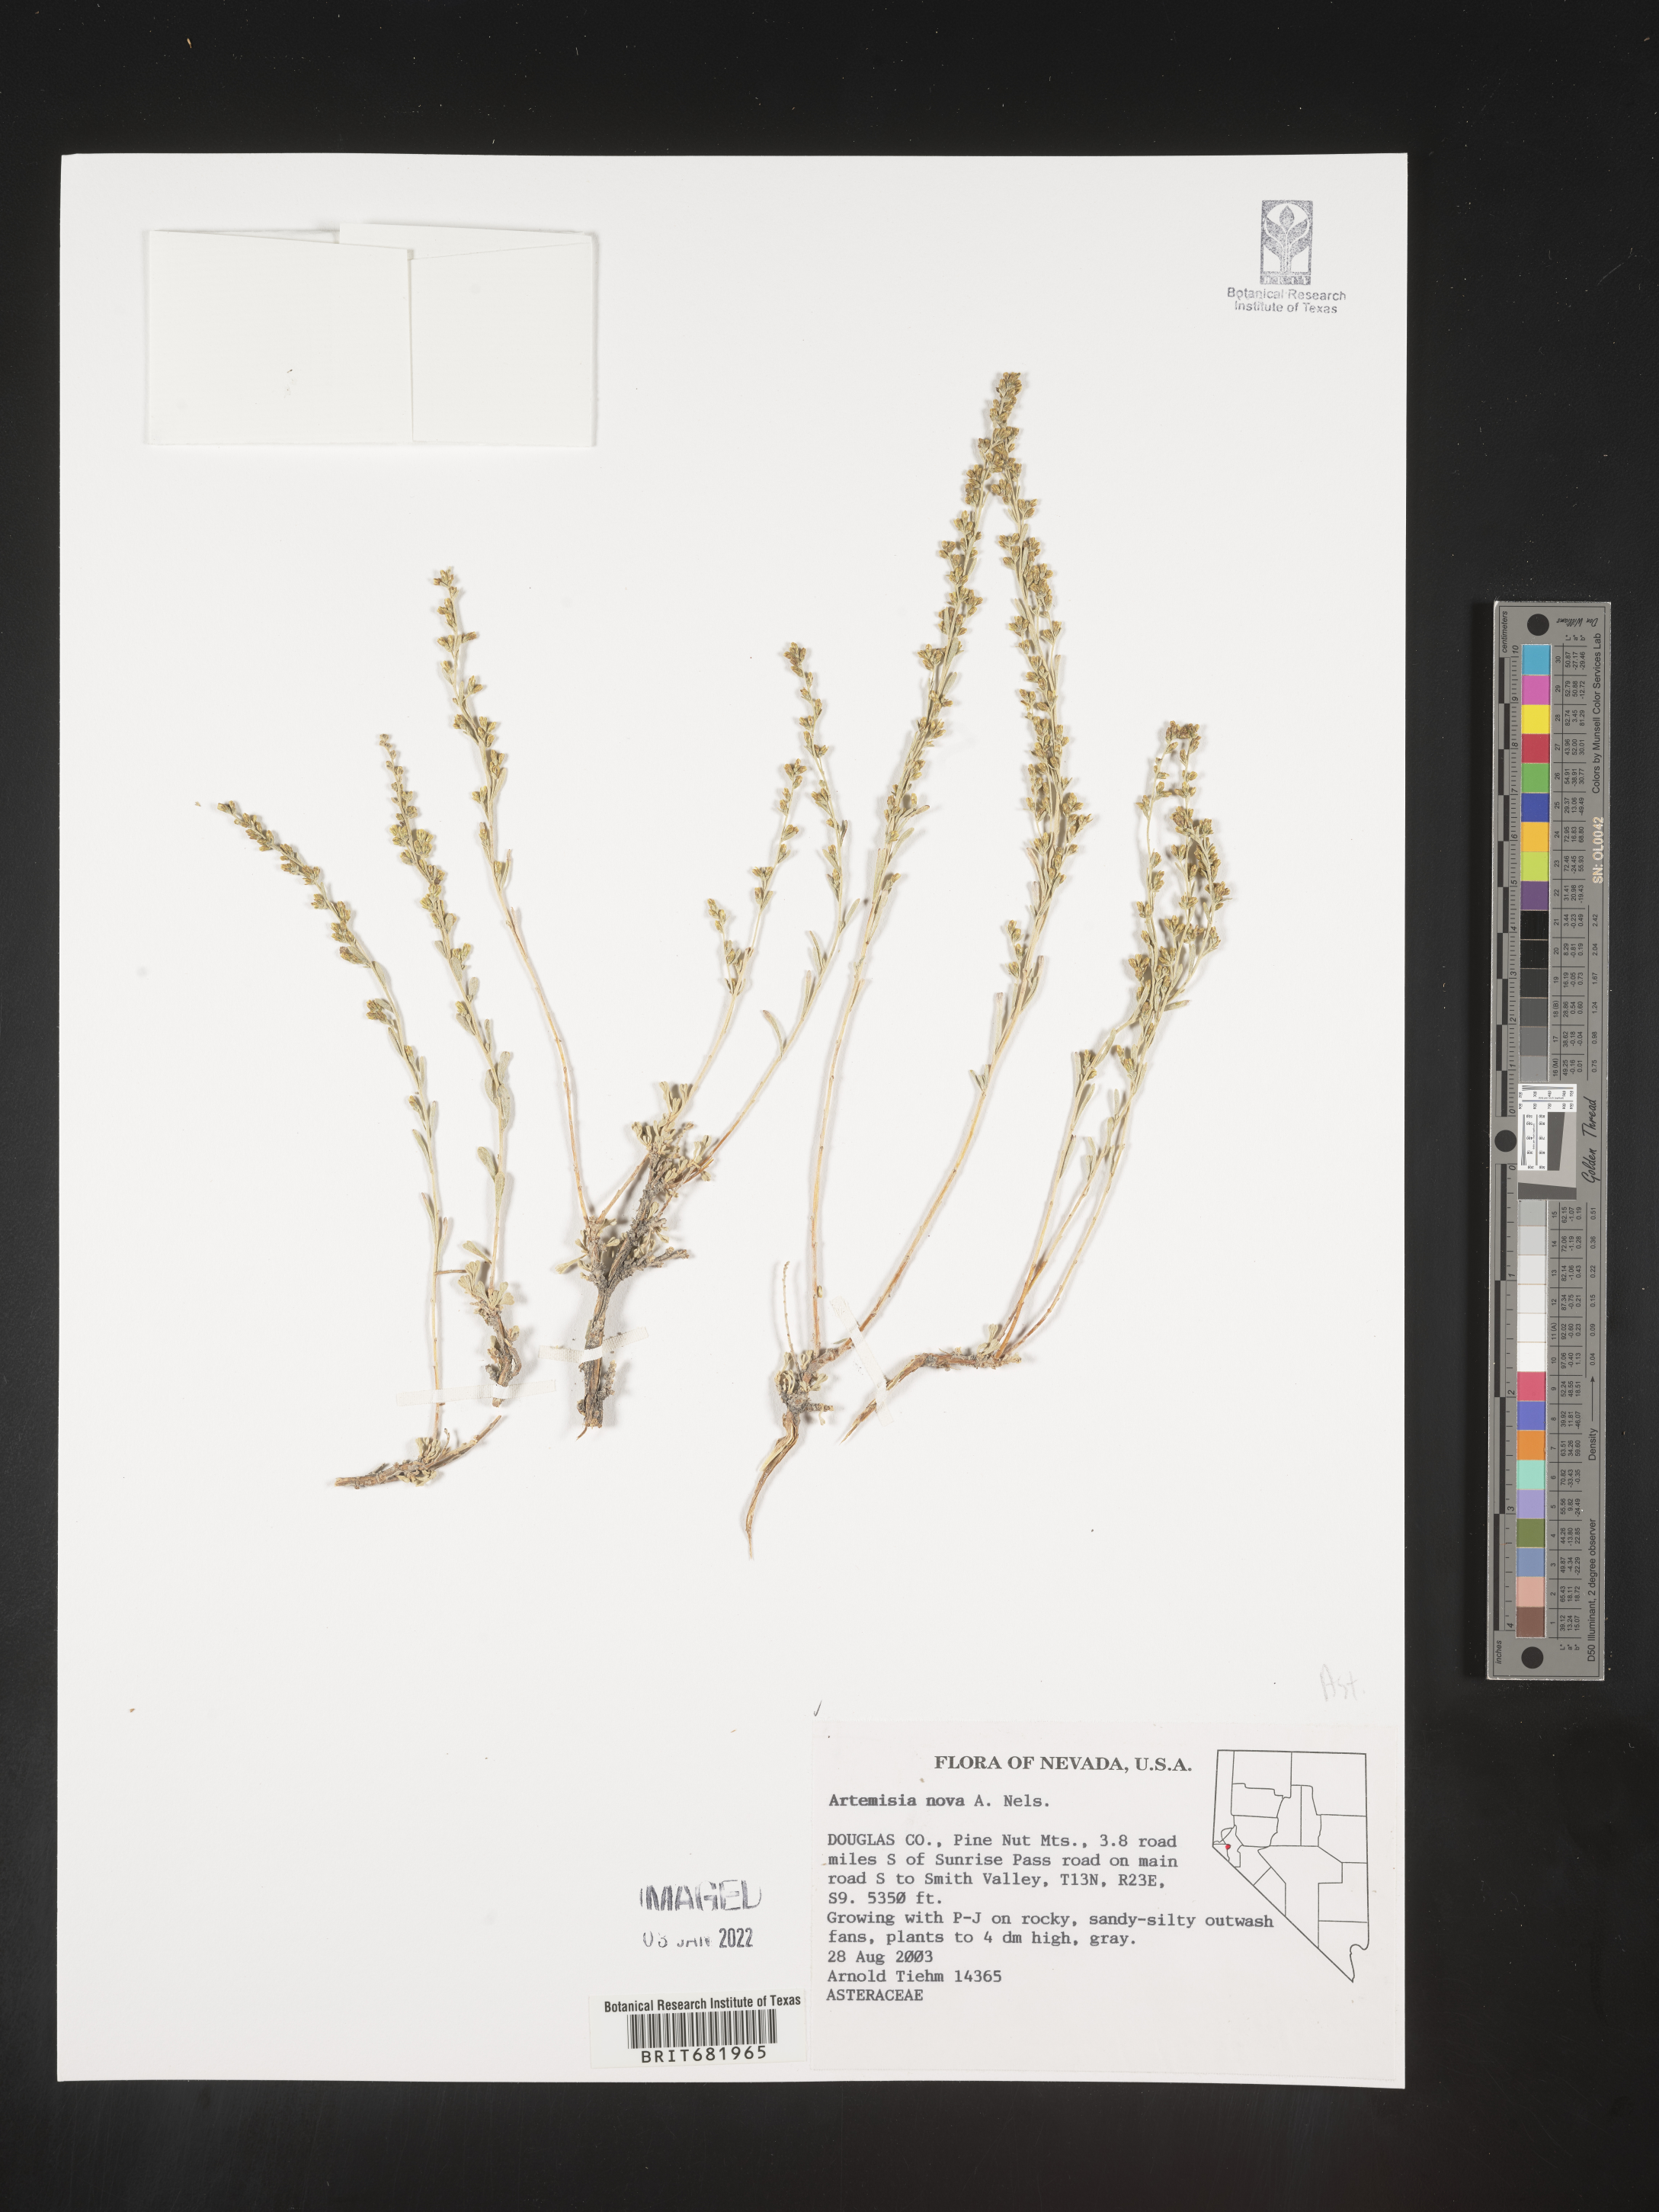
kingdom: Plantae
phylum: Tracheophyta
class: Magnoliopsida
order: Asterales
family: Asteraceae
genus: Artemisia
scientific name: Artemisia nova
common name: Black-sage
